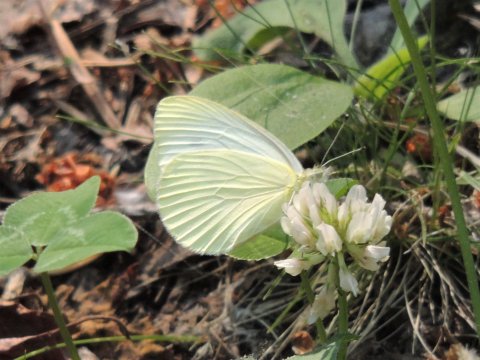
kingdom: Animalia
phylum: Arthropoda
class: Insecta
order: Lepidoptera
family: Pieridae
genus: Pieris
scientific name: Pieris rapae
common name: Cabbage White
